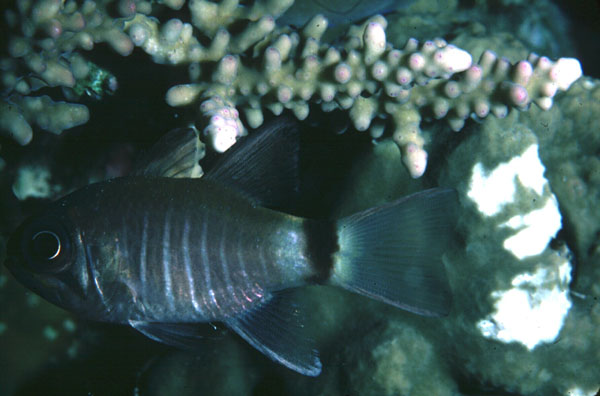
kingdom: Animalia
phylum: Chordata
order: Perciformes
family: Apogonidae
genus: Nectamia
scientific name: Nectamia zebrinus
